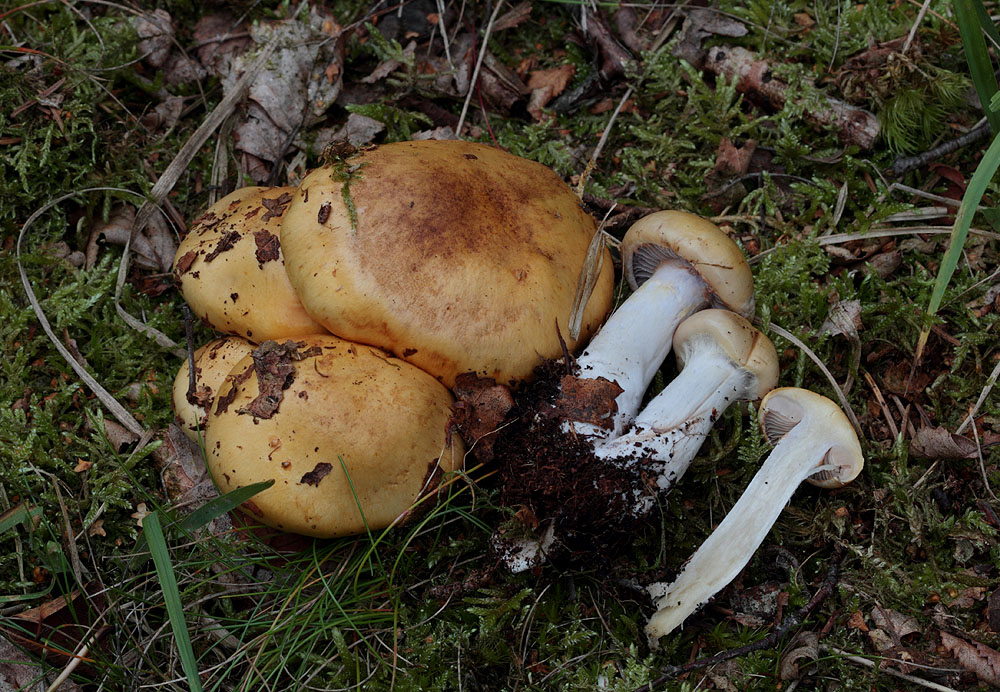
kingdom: Fungi
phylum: Basidiomycota
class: Agaricomycetes
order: Agaricales
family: Cortinariaceae
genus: Cortinarius
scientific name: Cortinarius delibutus
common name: gul slørhat
